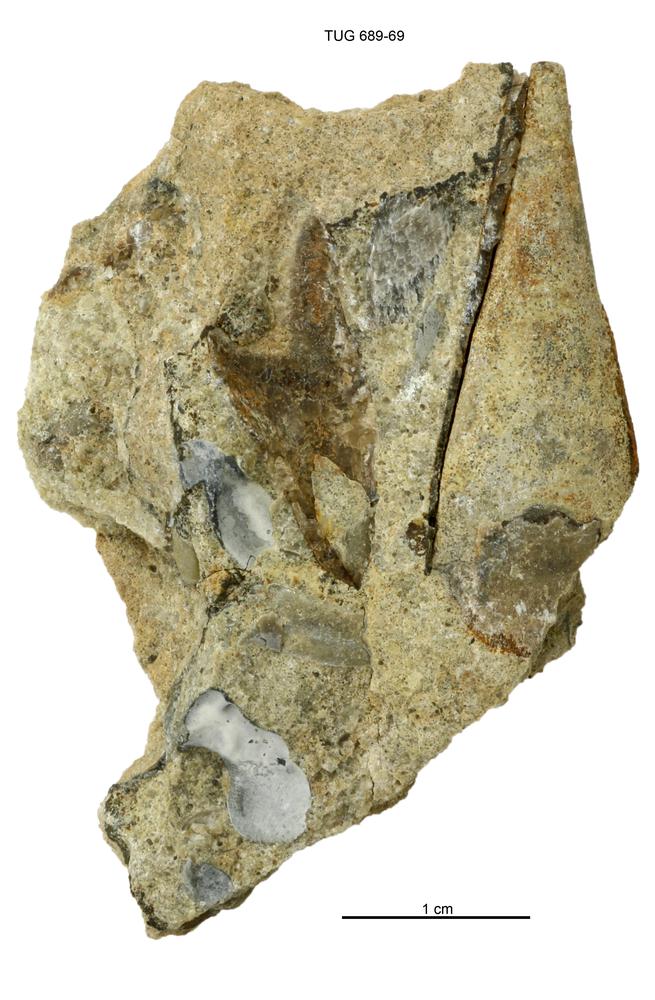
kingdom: Animalia
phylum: Annelida
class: Polychaeta
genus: Hyolithes
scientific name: Hyolithes
